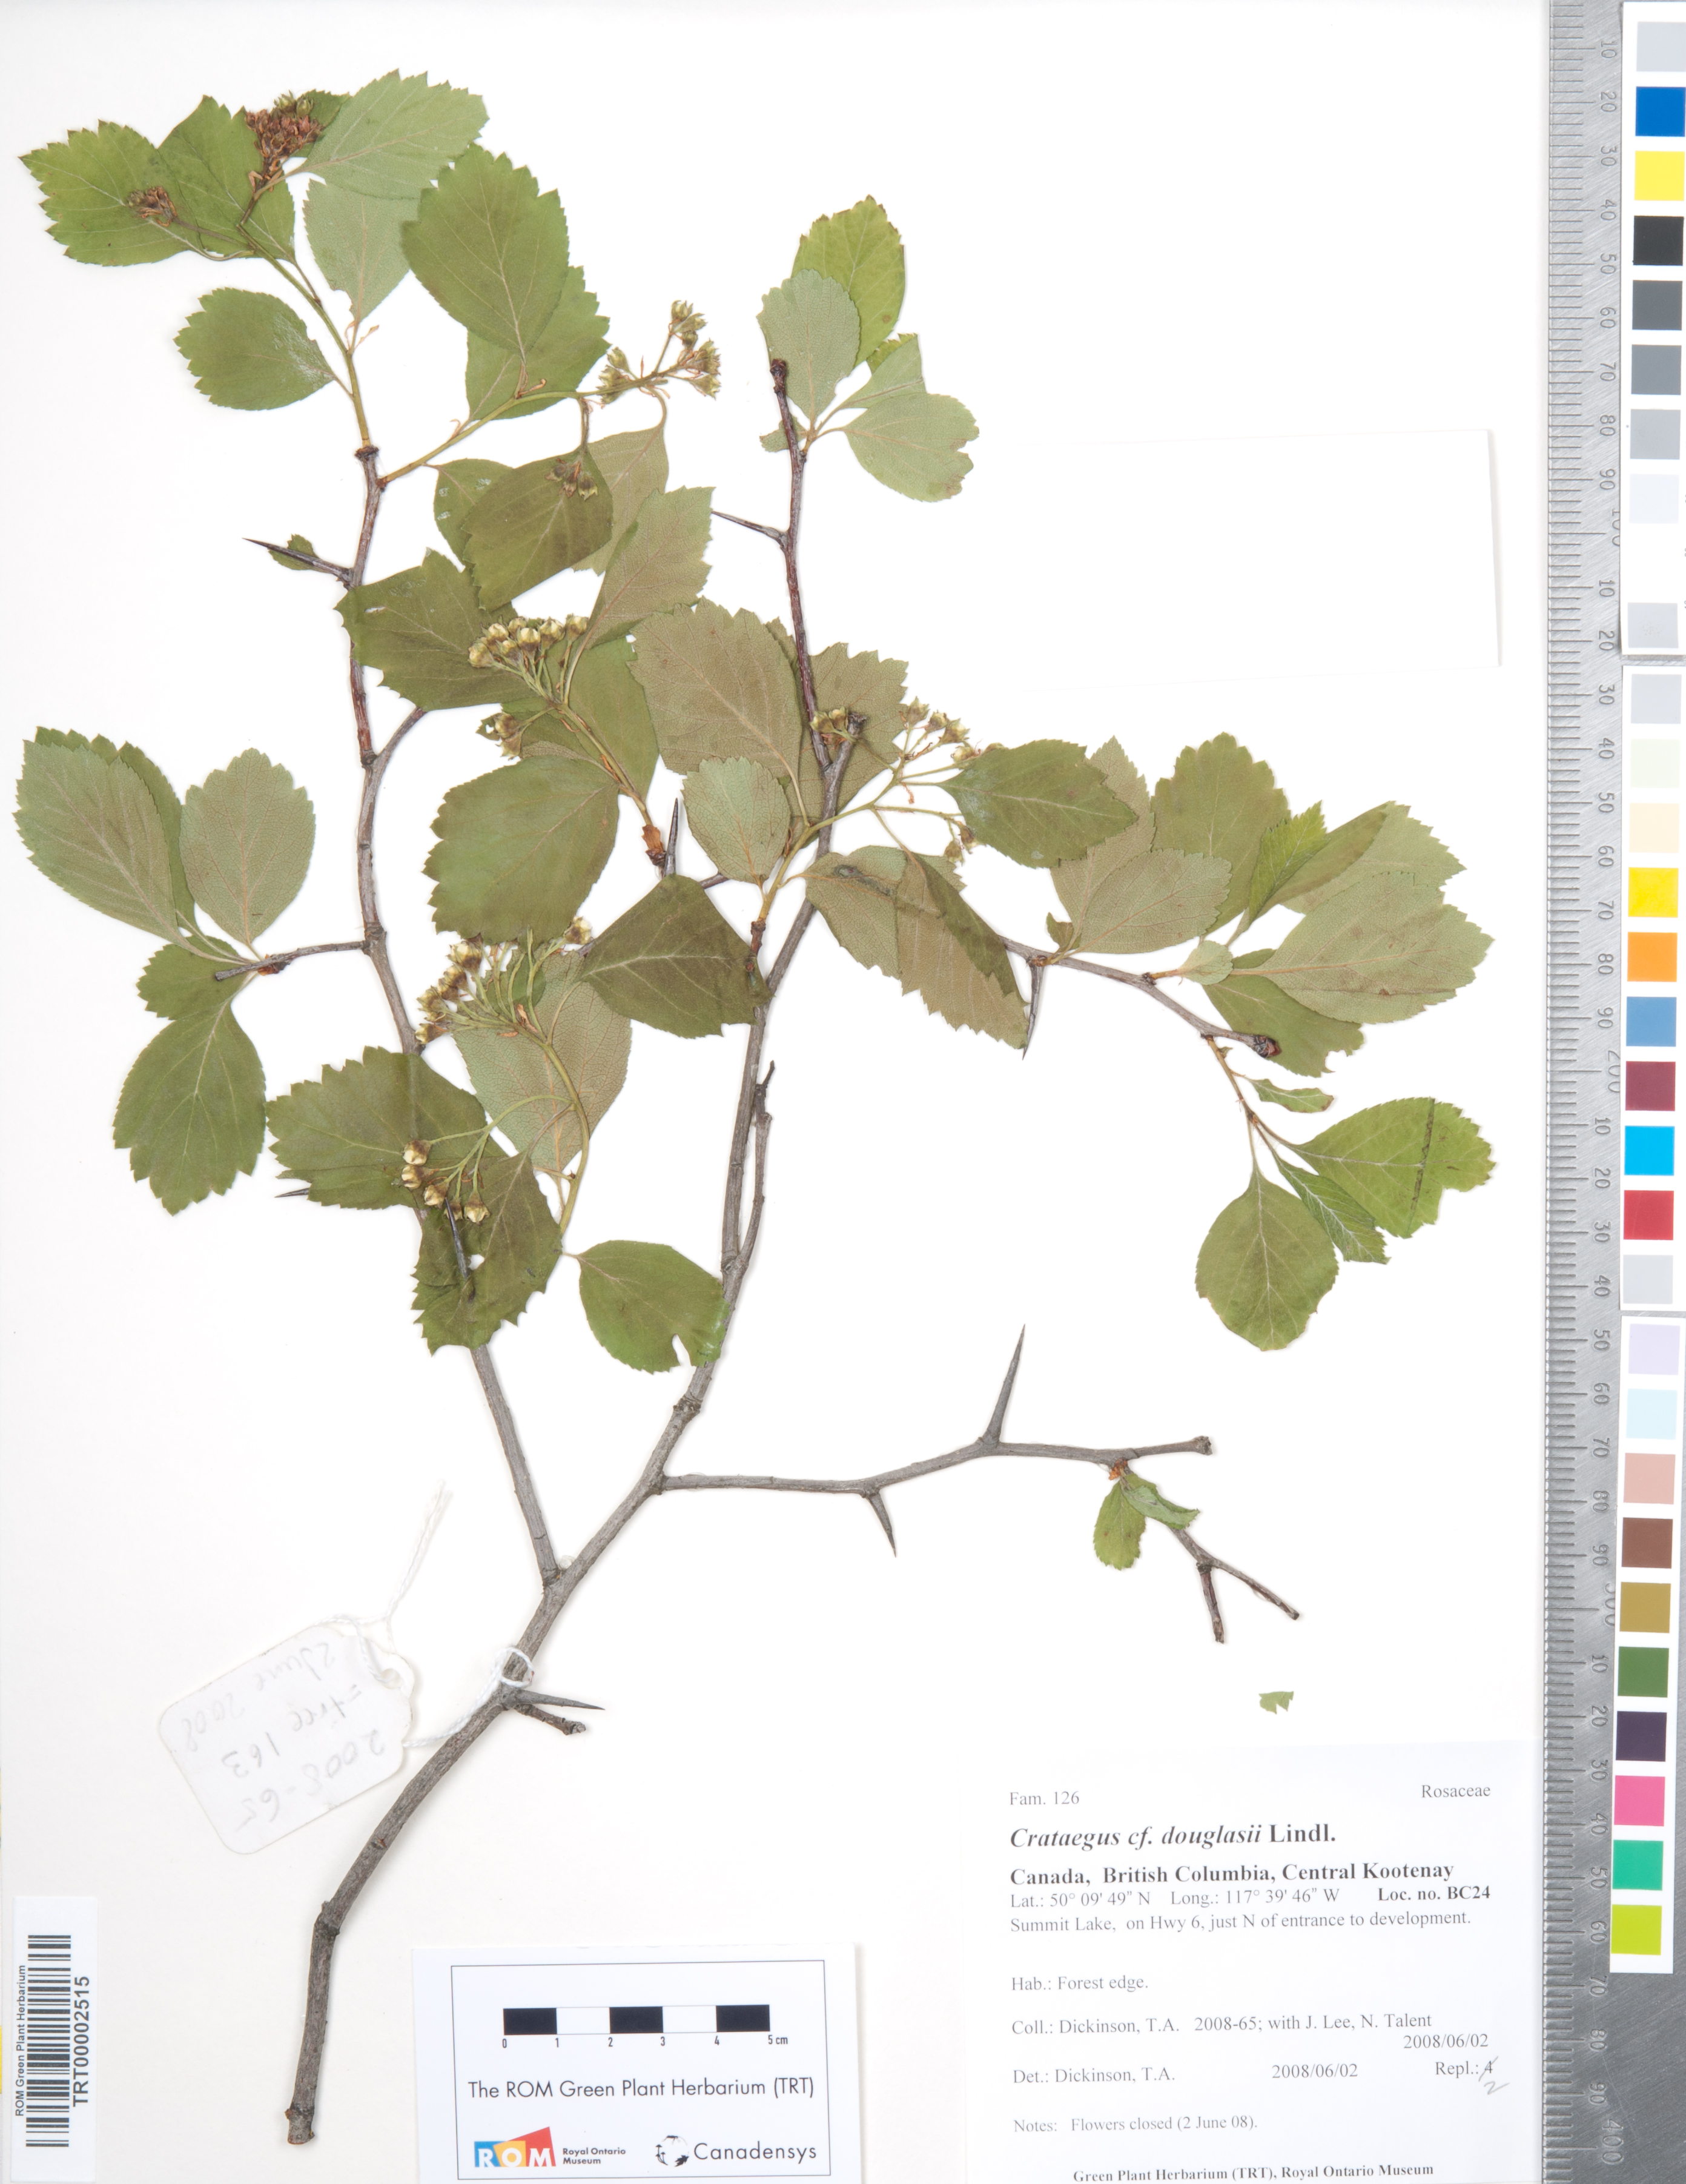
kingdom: Plantae
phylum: Tracheophyta
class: Magnoliopsida
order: Rosales
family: Rosaceae
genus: Crataegus
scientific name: Crataegus douglasii
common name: Black hawthorn
